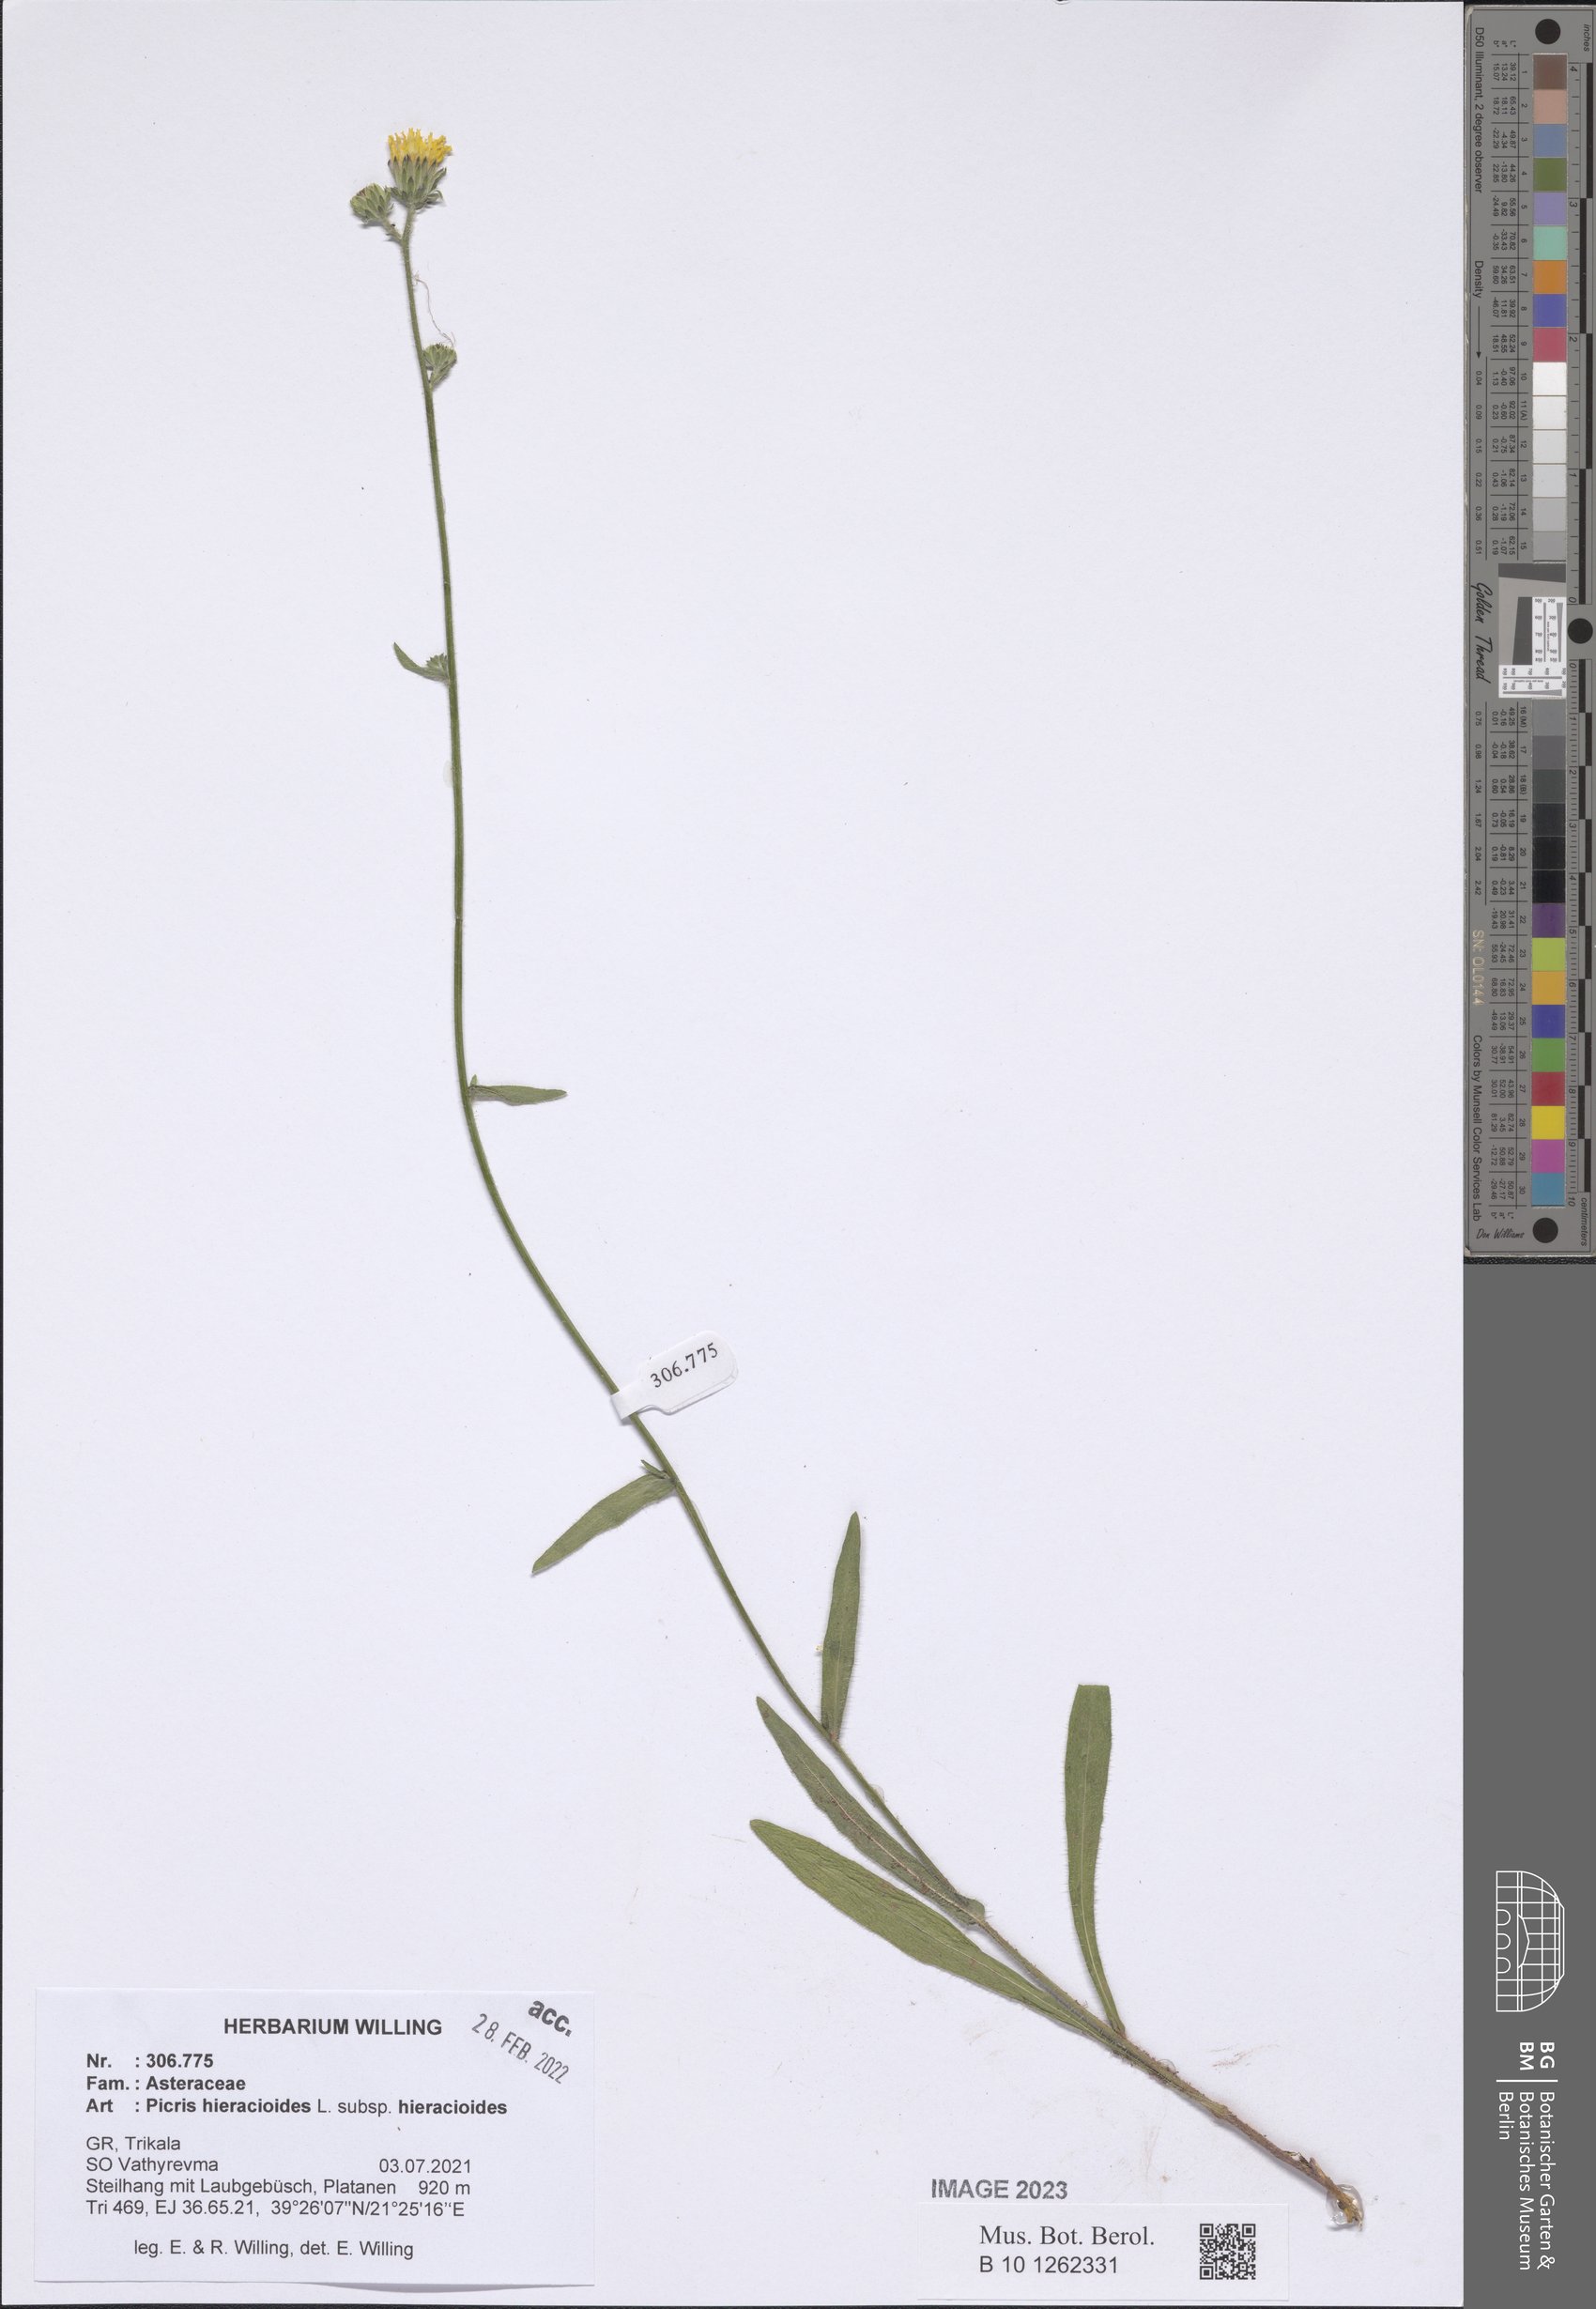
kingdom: Plantae
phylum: Tracheophyta
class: Magnoliopsida
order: Asterales
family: Asteraceae
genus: Picris
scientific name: Picris hieracioides
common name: Hawkweed oxtongue
